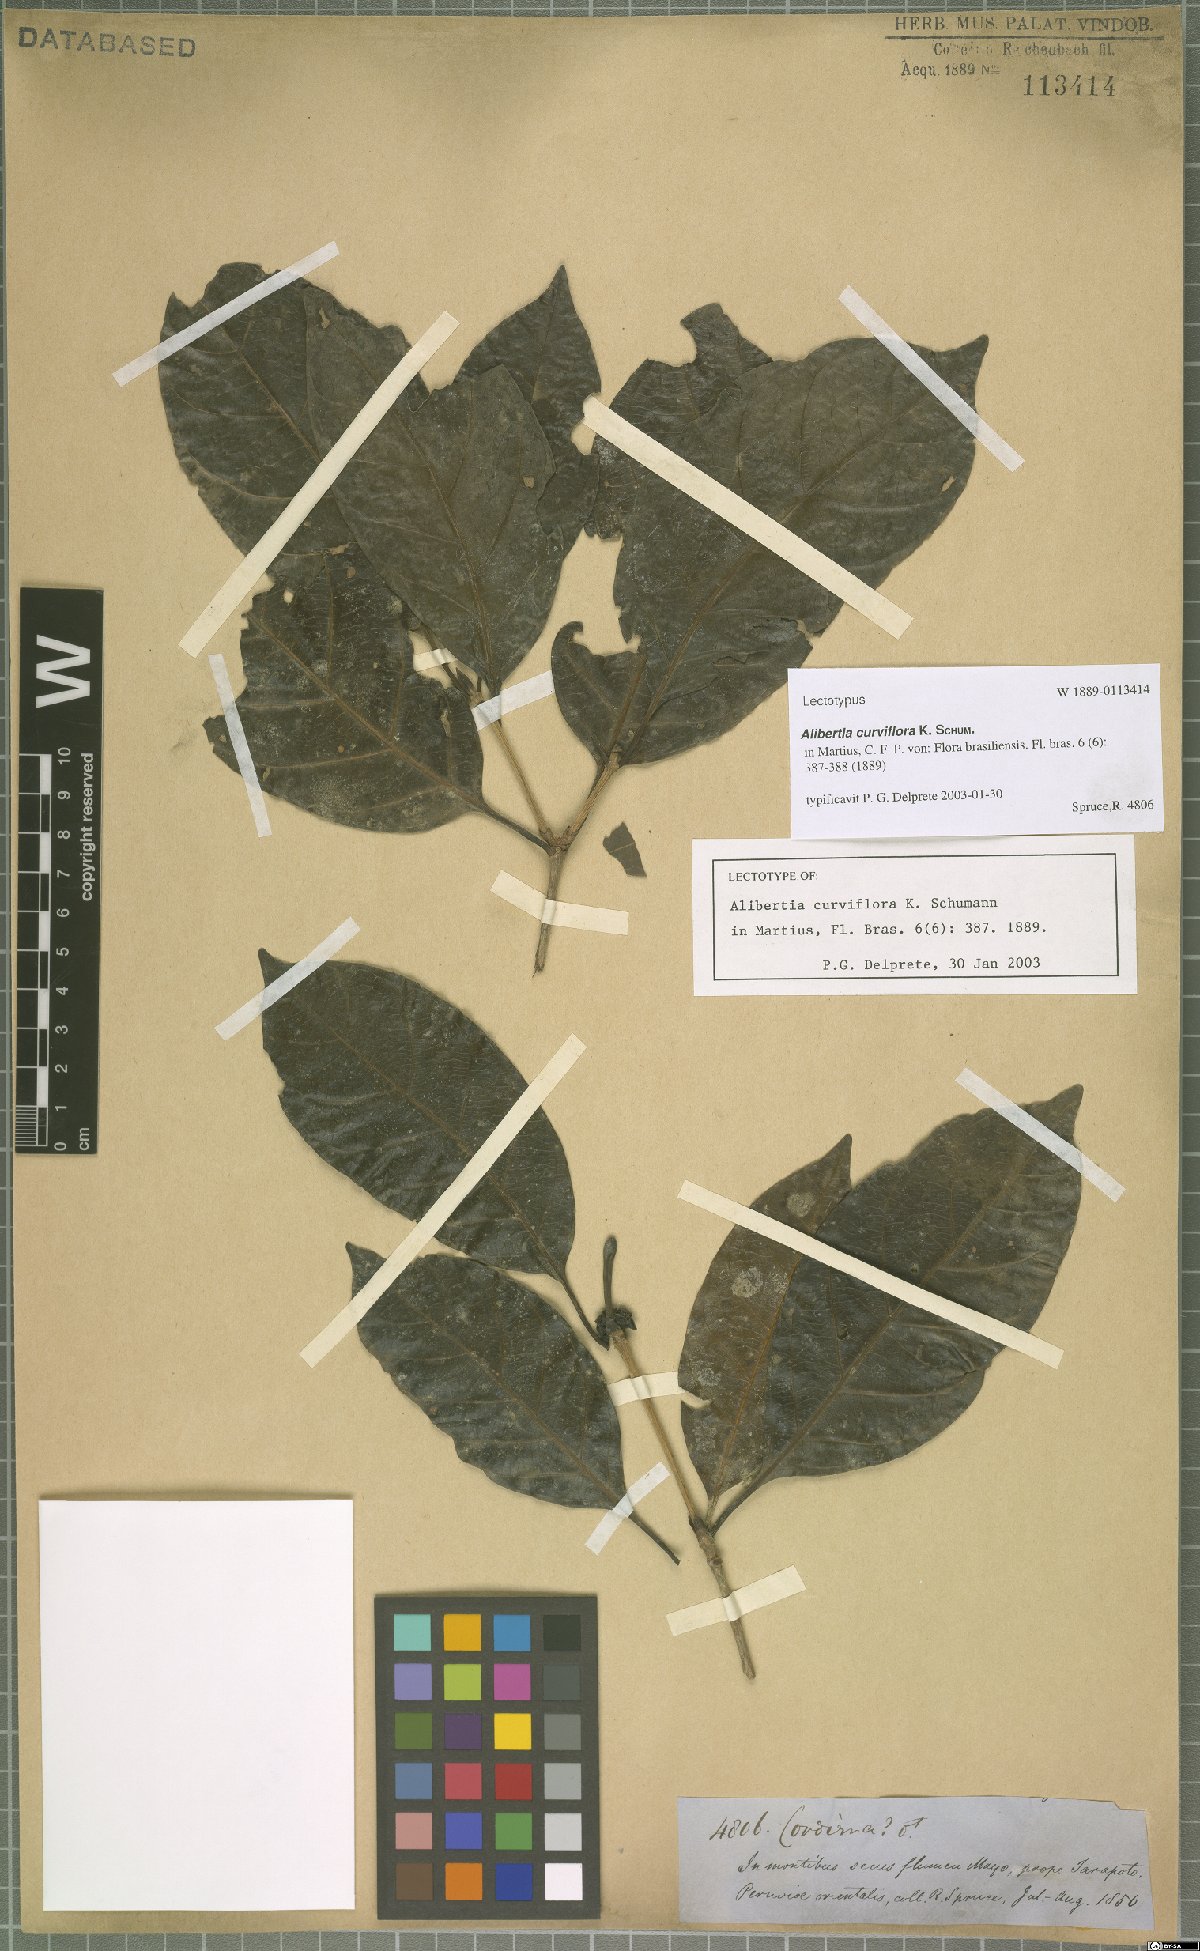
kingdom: Plantae
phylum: Tracheophyta
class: Magnoliopsida
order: Gentianales
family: Rubiaceae
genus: Alibertia
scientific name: Alibertia curviflora
